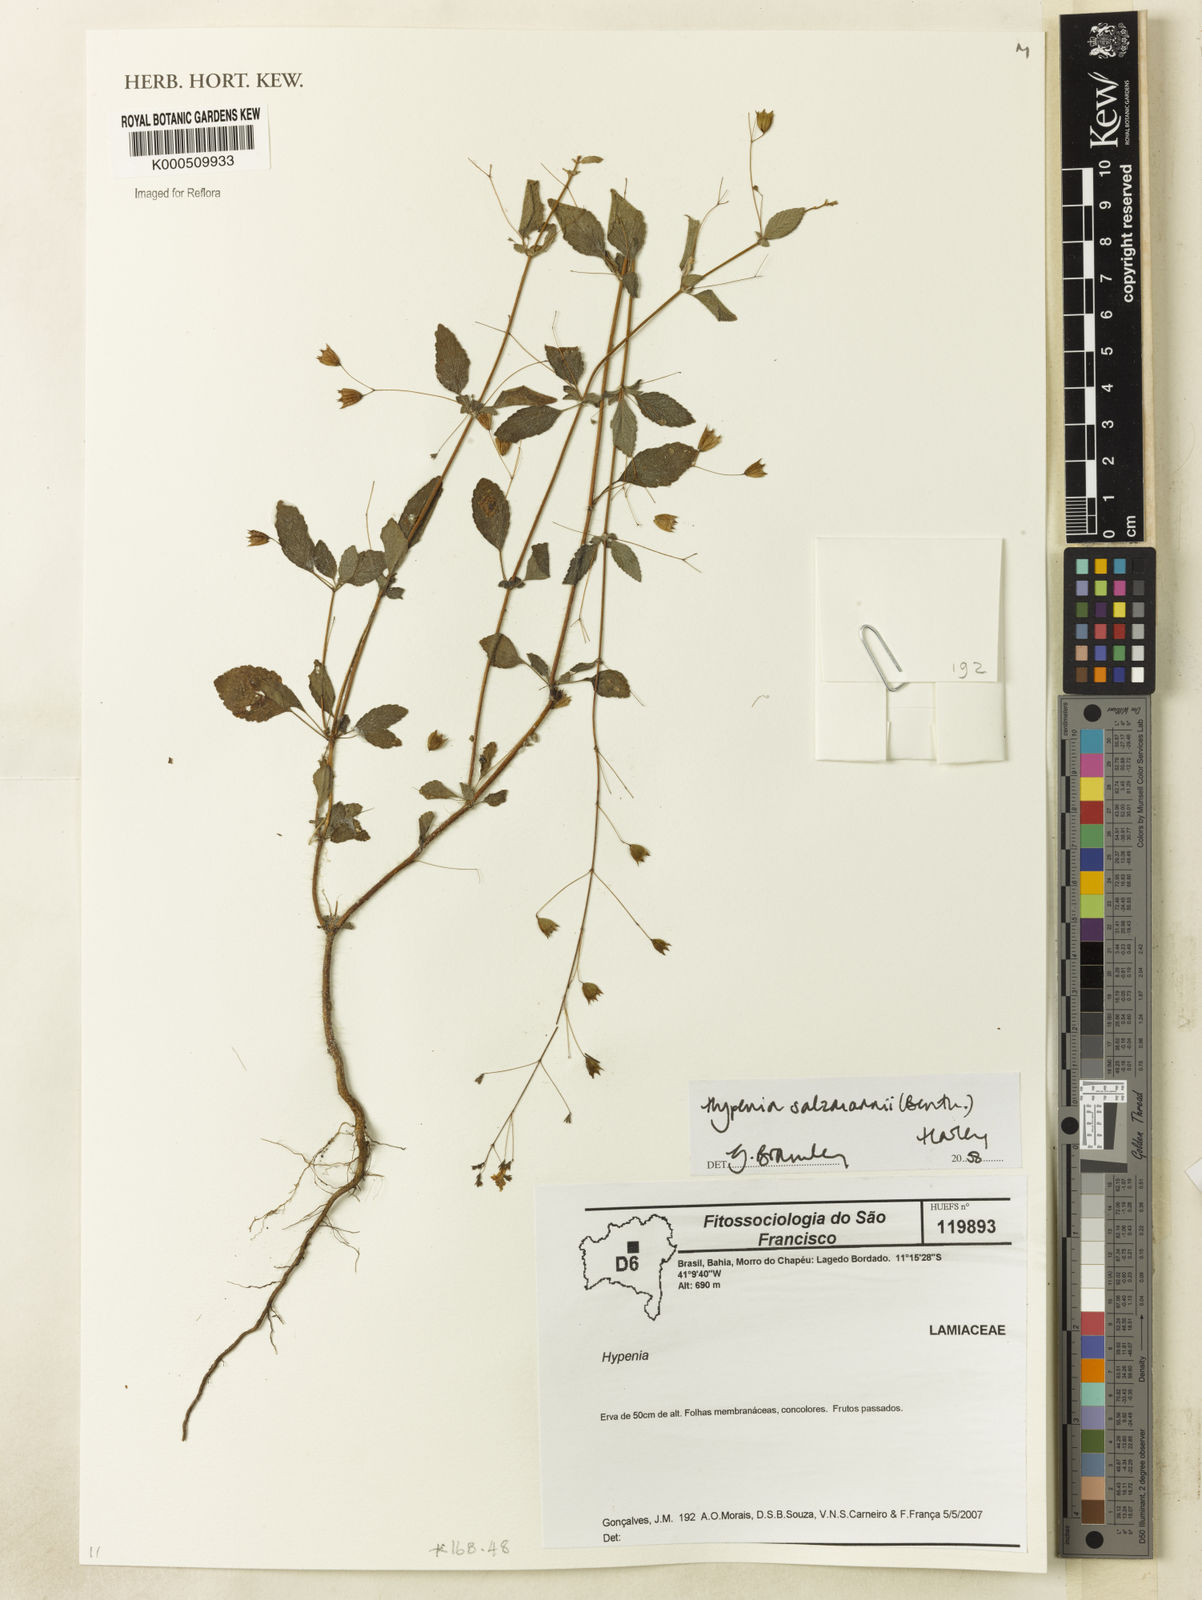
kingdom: Plantae
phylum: Tracheophyta
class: Magnoliopsida
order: Lamiales
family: Lamiaceae
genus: Hypenia
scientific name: Hypenia salzmannii
